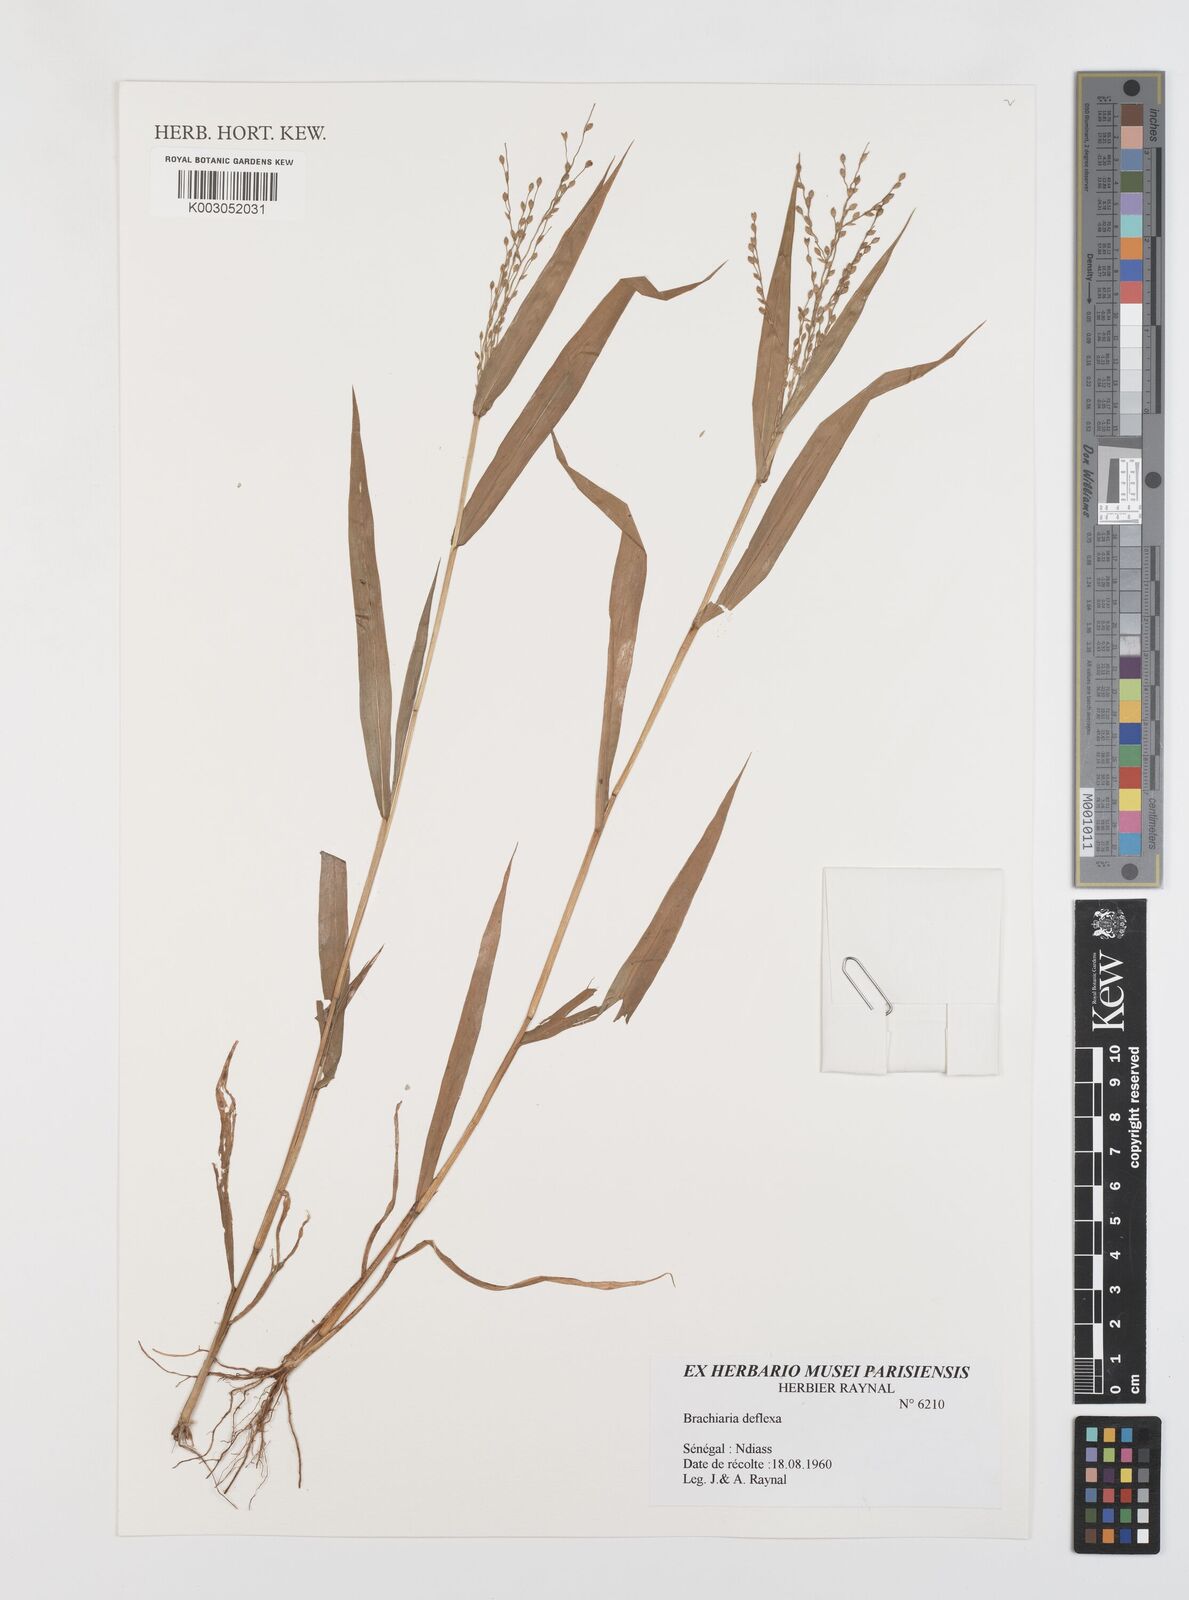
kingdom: Plantae
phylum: Tracheophyta
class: Liliopsida
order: Poales
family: Poaceae
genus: Urochloa
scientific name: Urochloa deflexa
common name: Guinea millet
